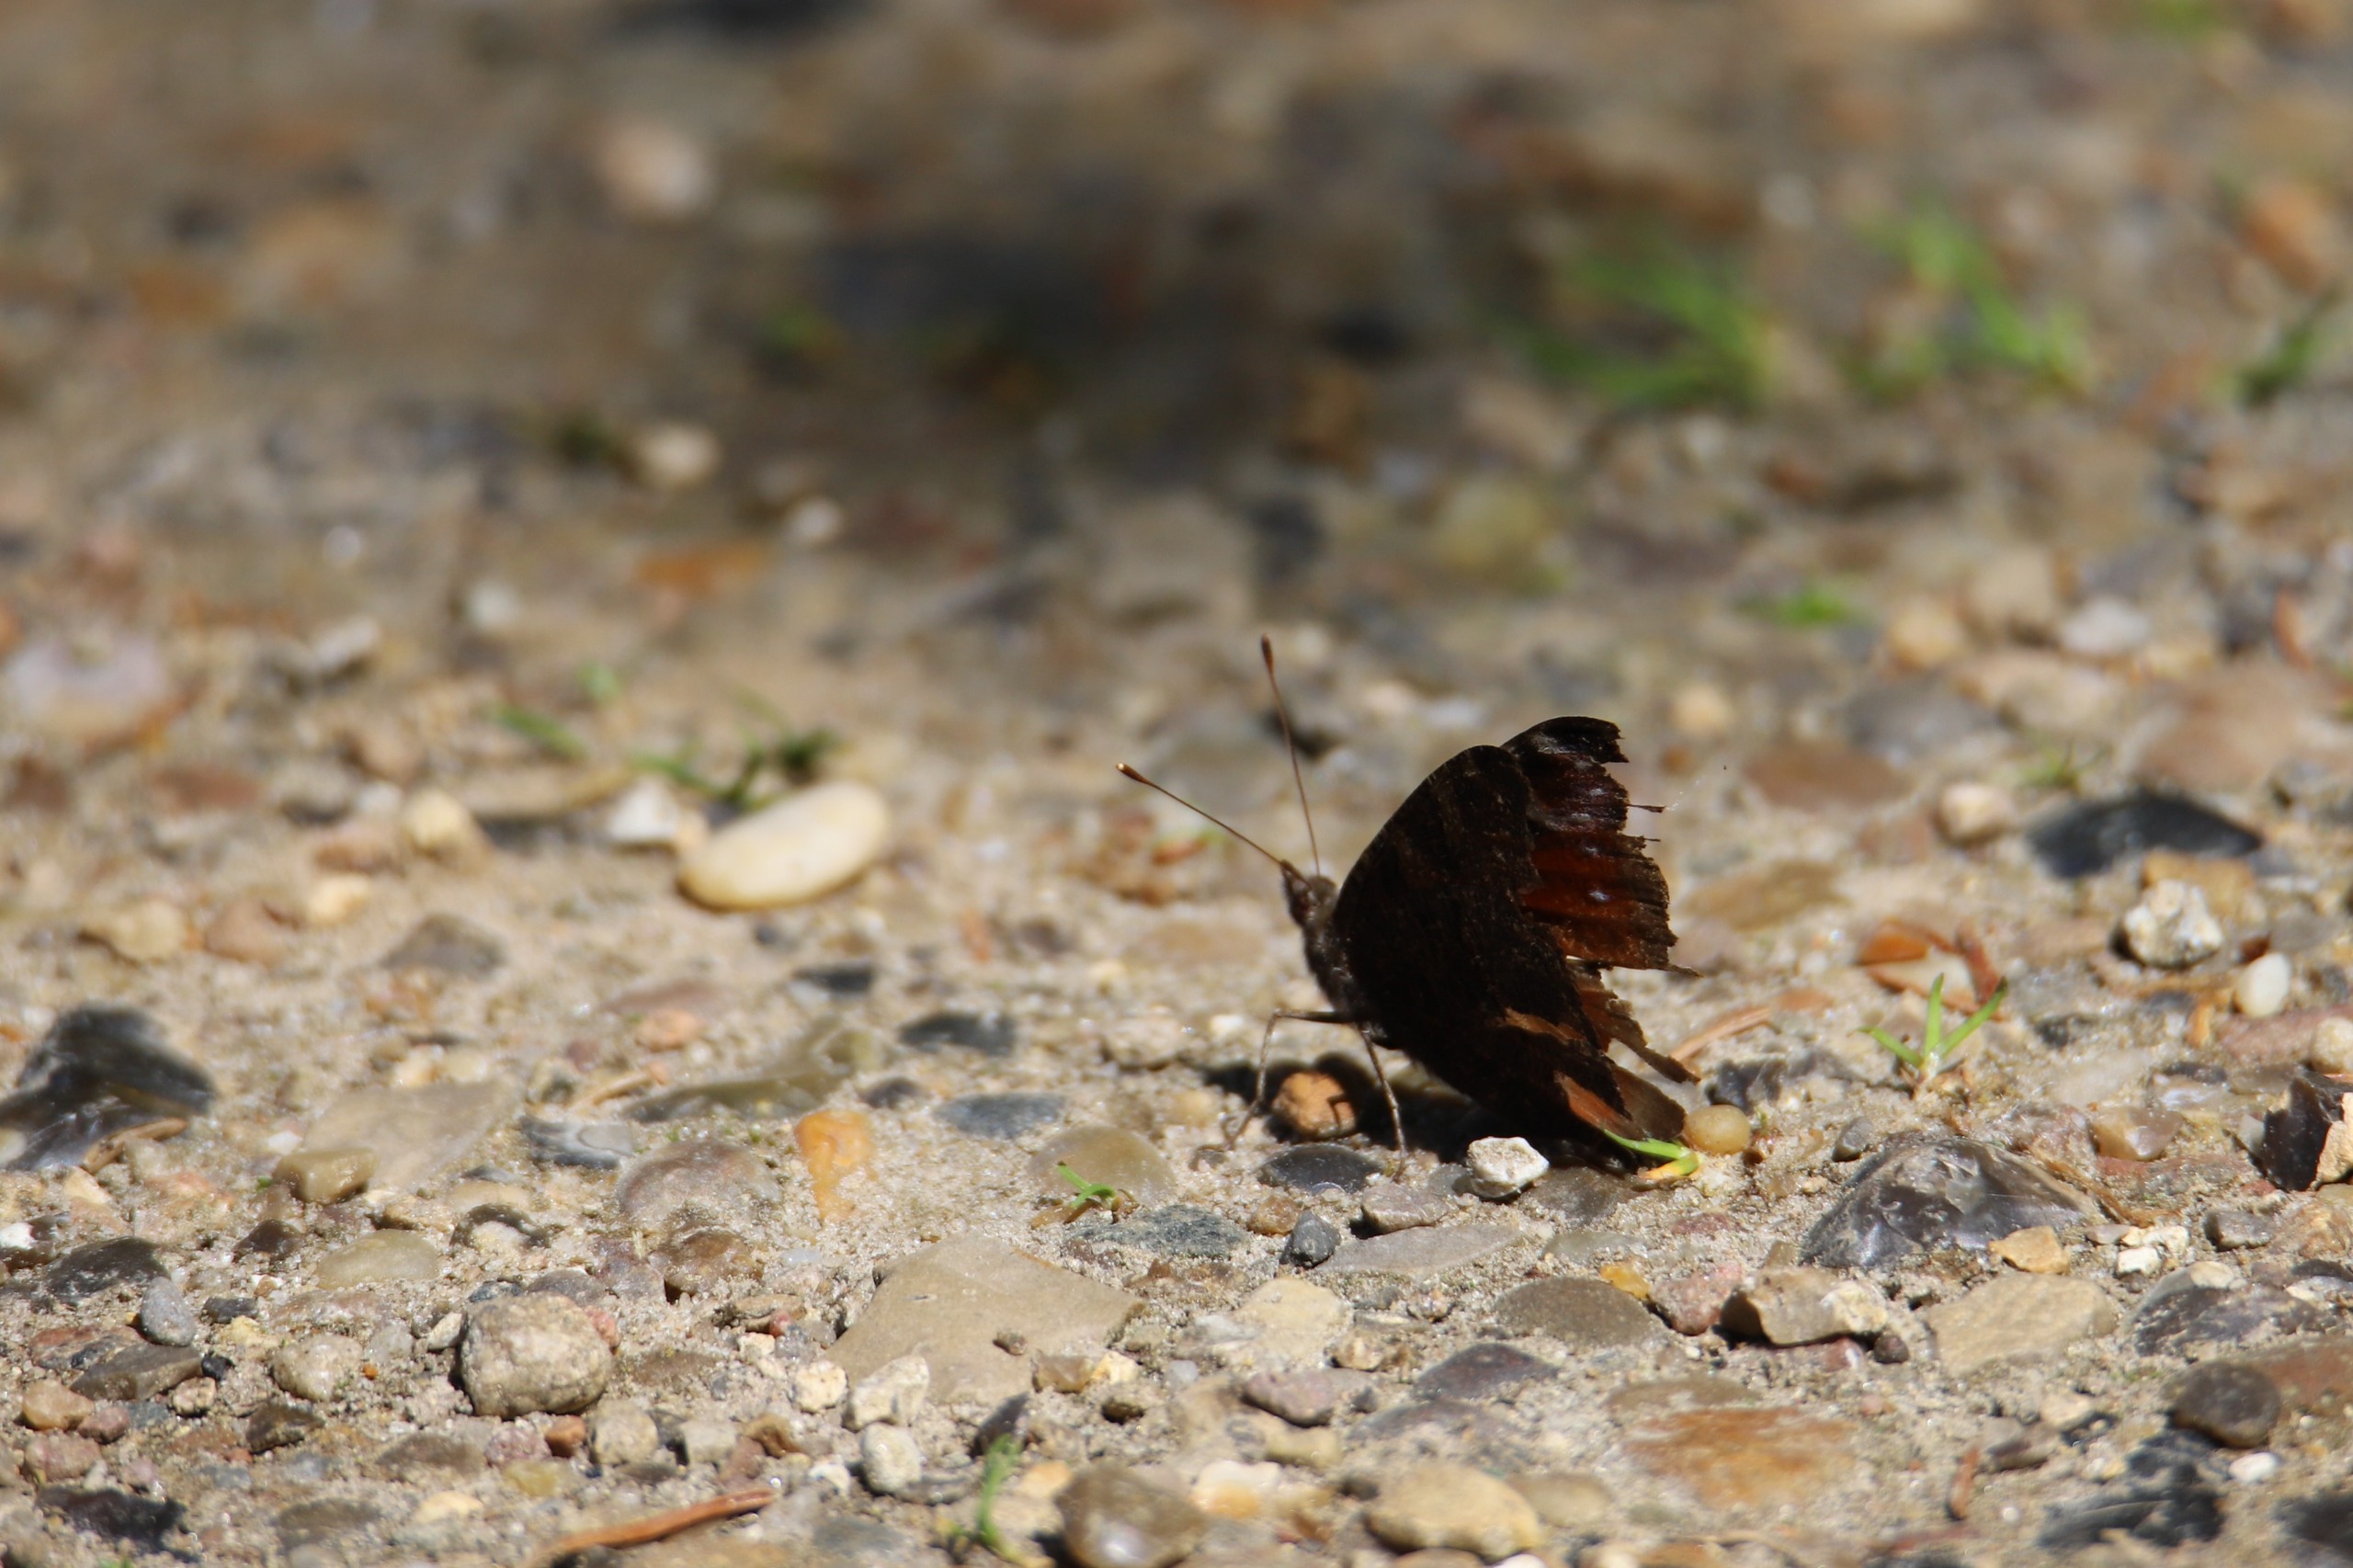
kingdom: Animalia
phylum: Arthropoda
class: Insecta
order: Lepidoptera
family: Nymphalidae
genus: Aglais
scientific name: Aglais io
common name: Dagpåfugleøje
